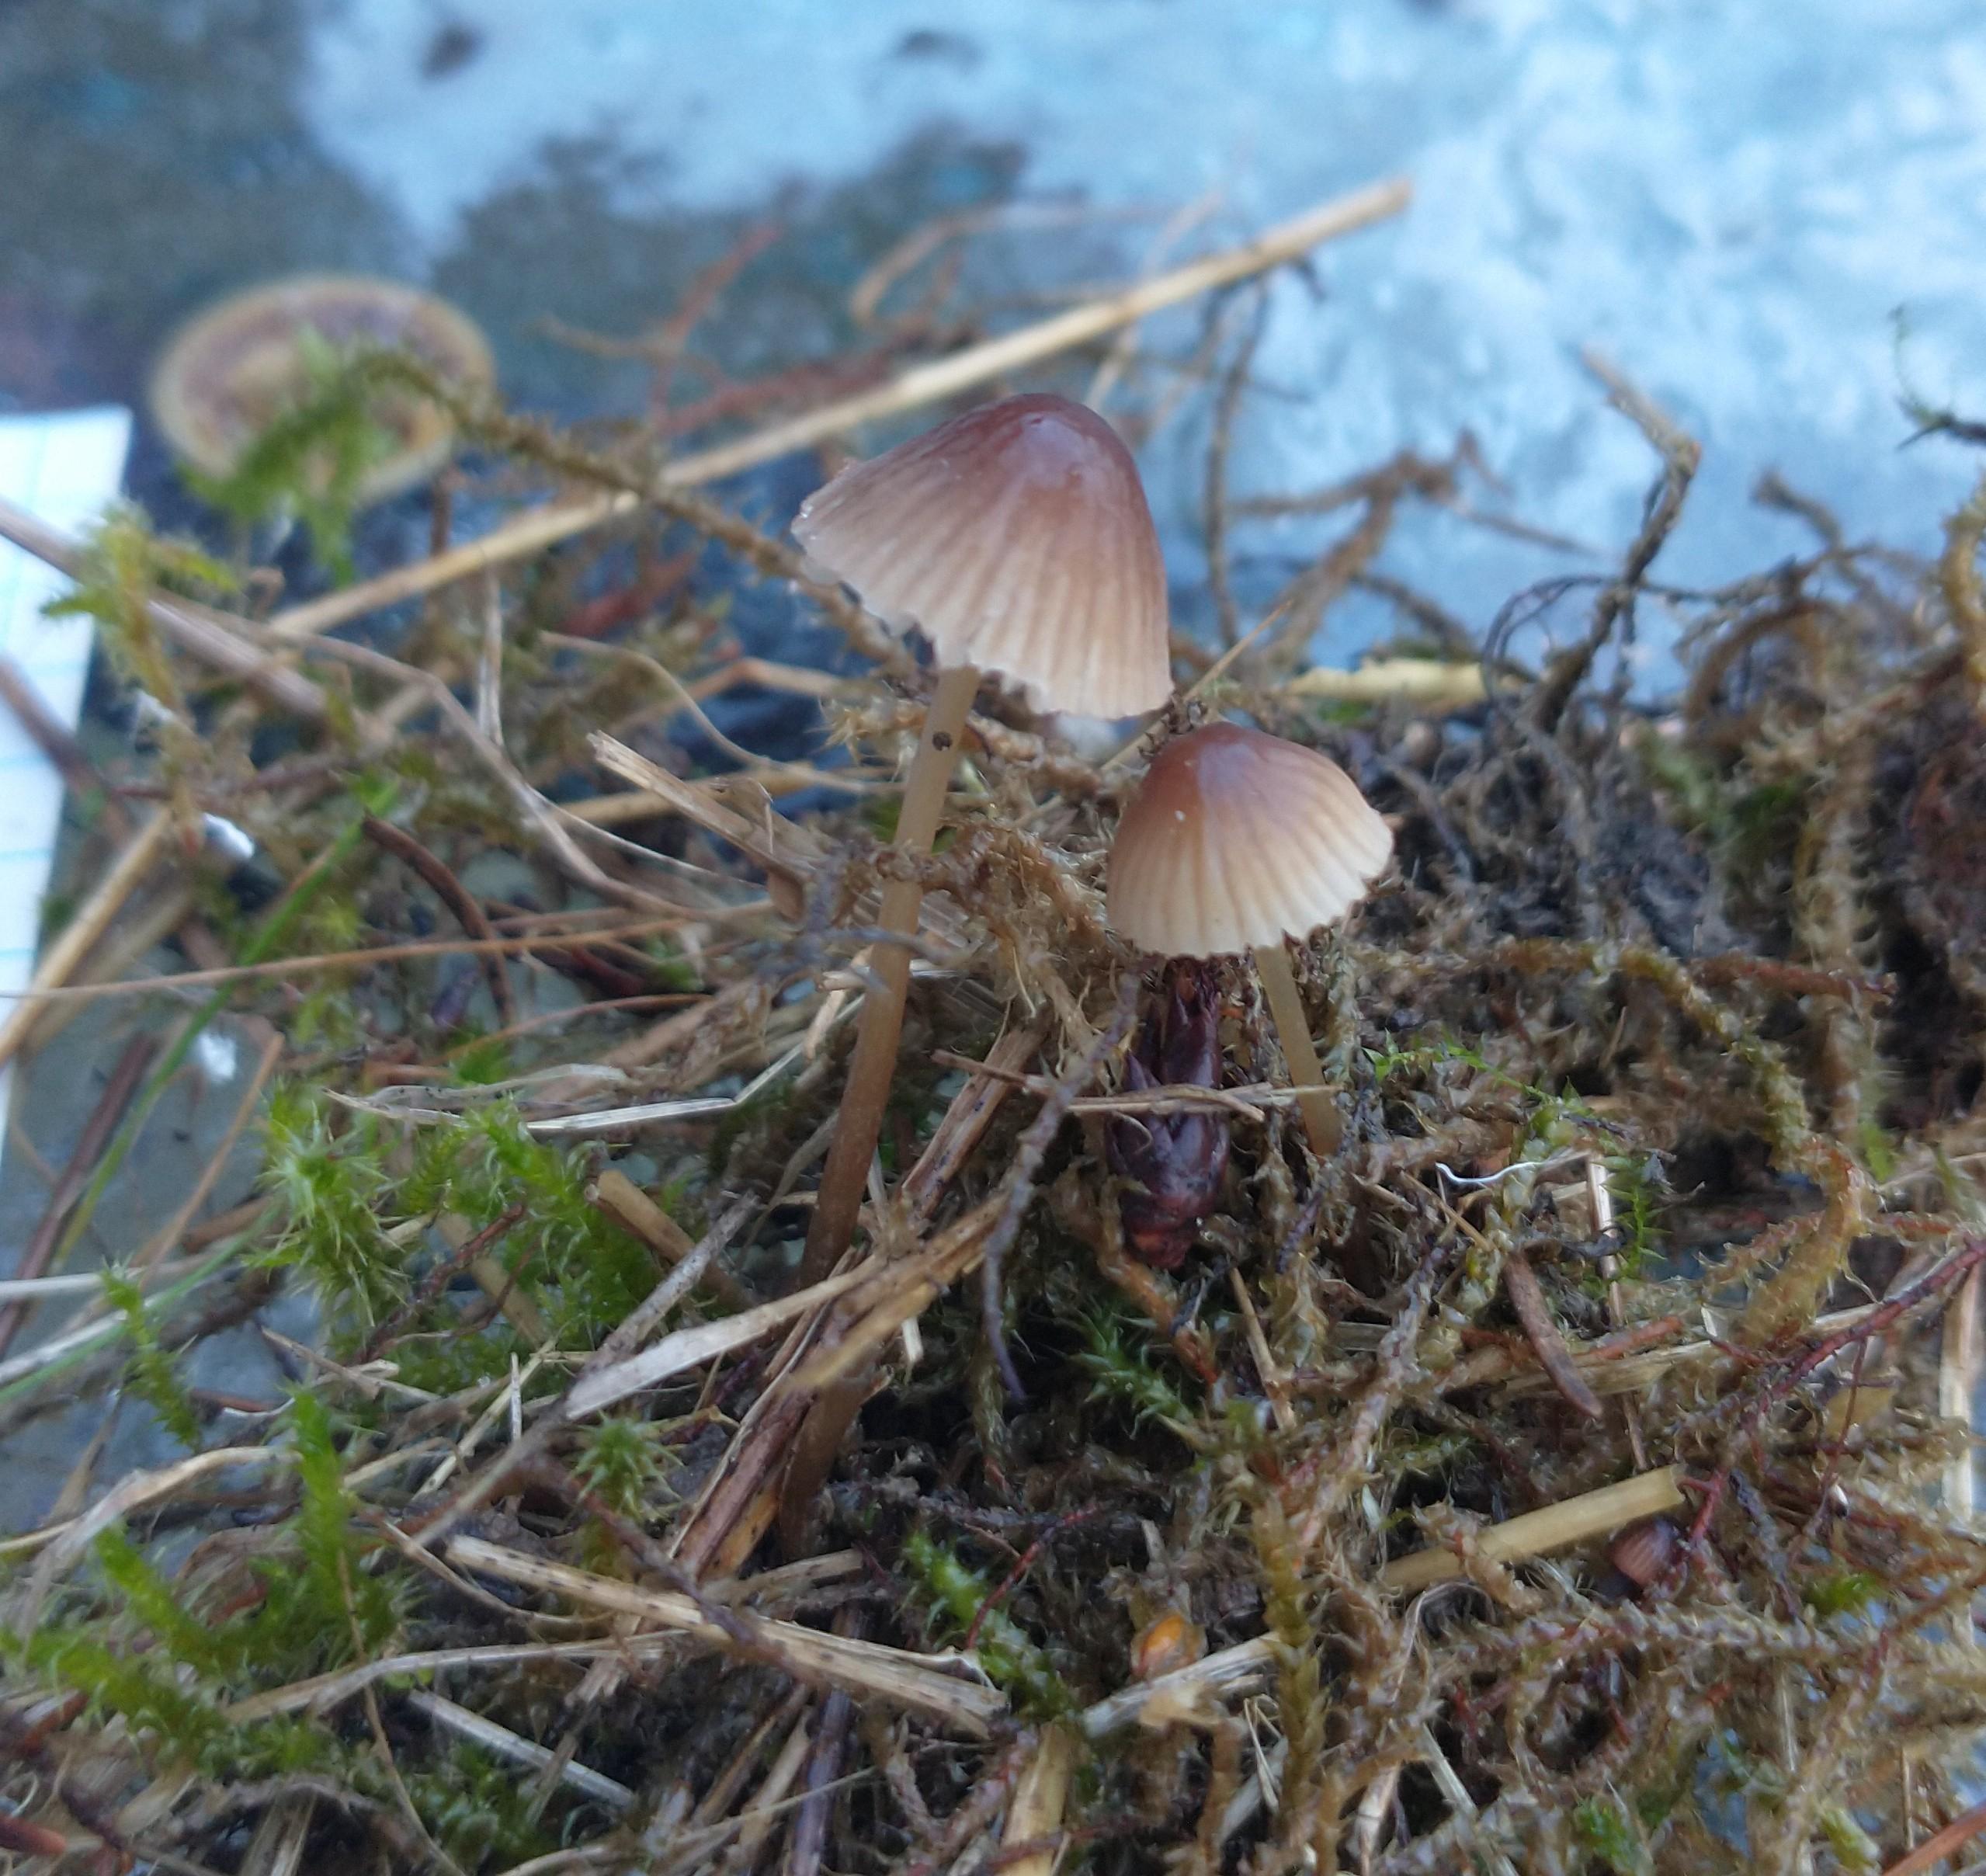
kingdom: Fungi
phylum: Basidiomycota
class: Agaricomycetes
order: Agaricales
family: Mycenaceae
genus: Mycena
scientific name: Mycena
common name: huesvamp
